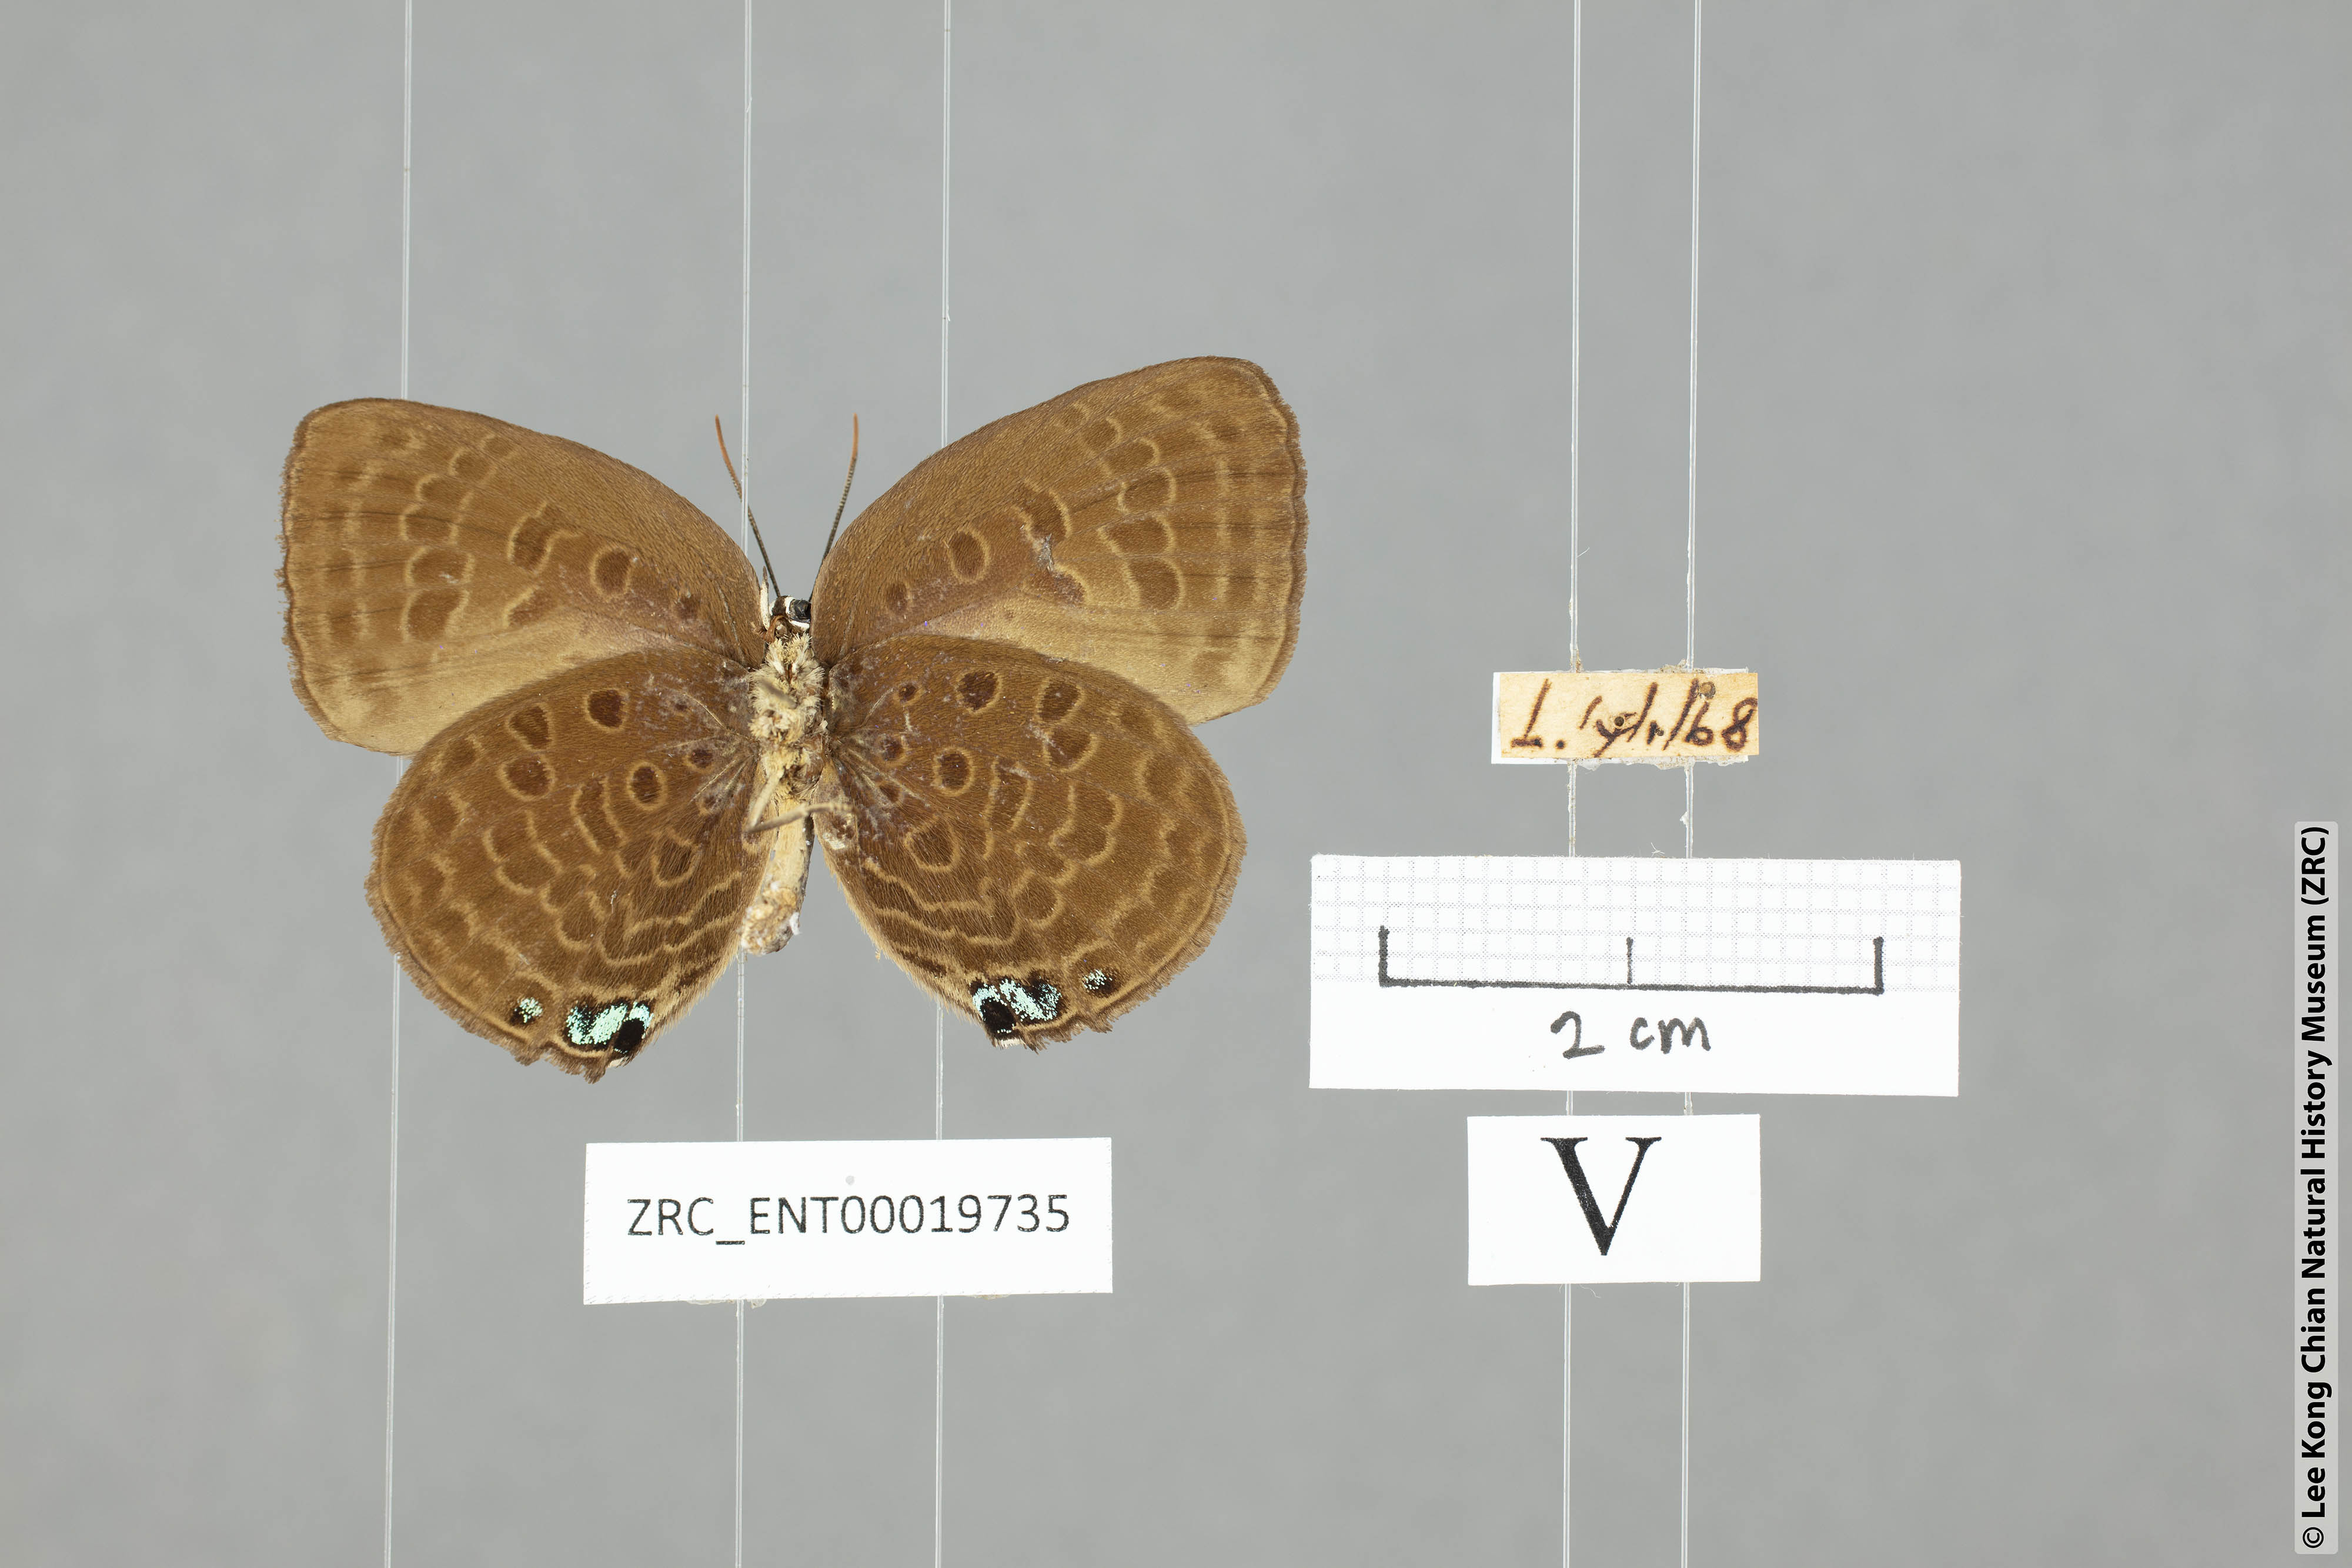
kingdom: Animalia
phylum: Arthropoda
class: Insecta
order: Lepidoptera
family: Lycaenidae
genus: Arhopala
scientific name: Arhopala
